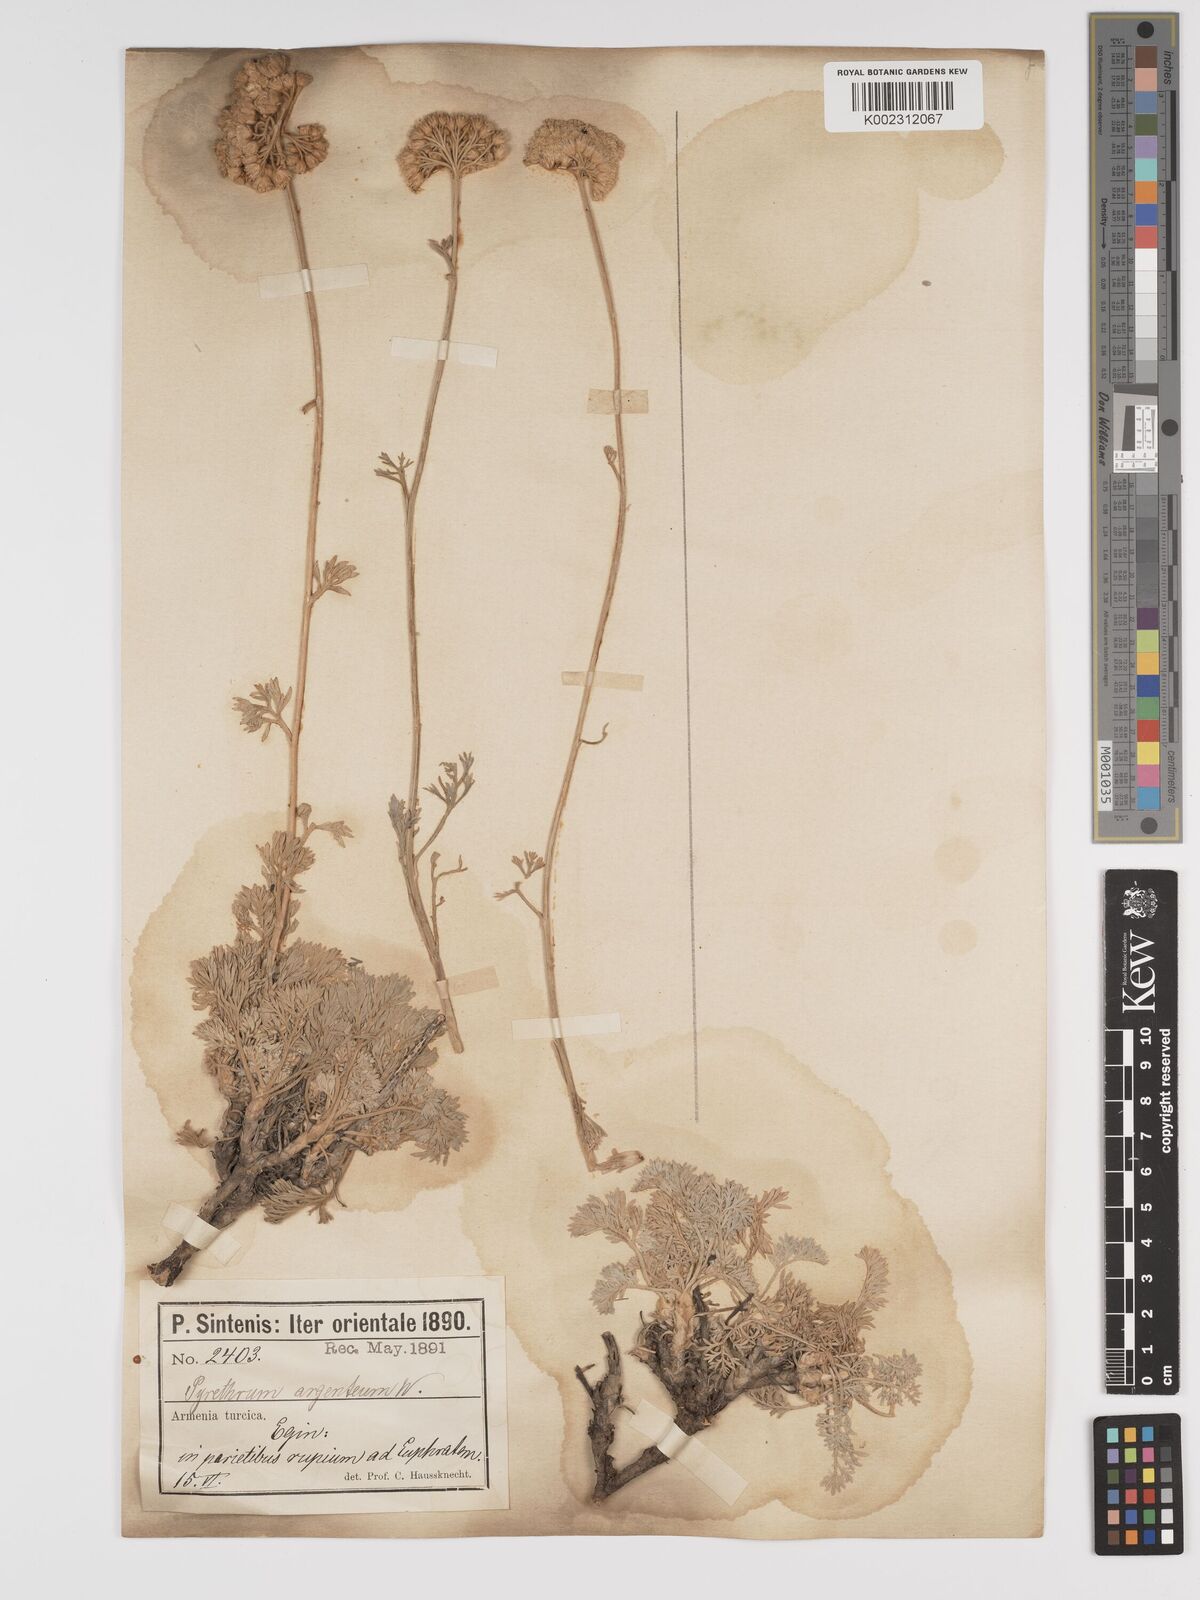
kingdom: Plantae
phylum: Tracheophyta
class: Magnoliopsida
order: Asterales
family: Asteraceae
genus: Tanacetum
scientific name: Tanacetum argenteum
